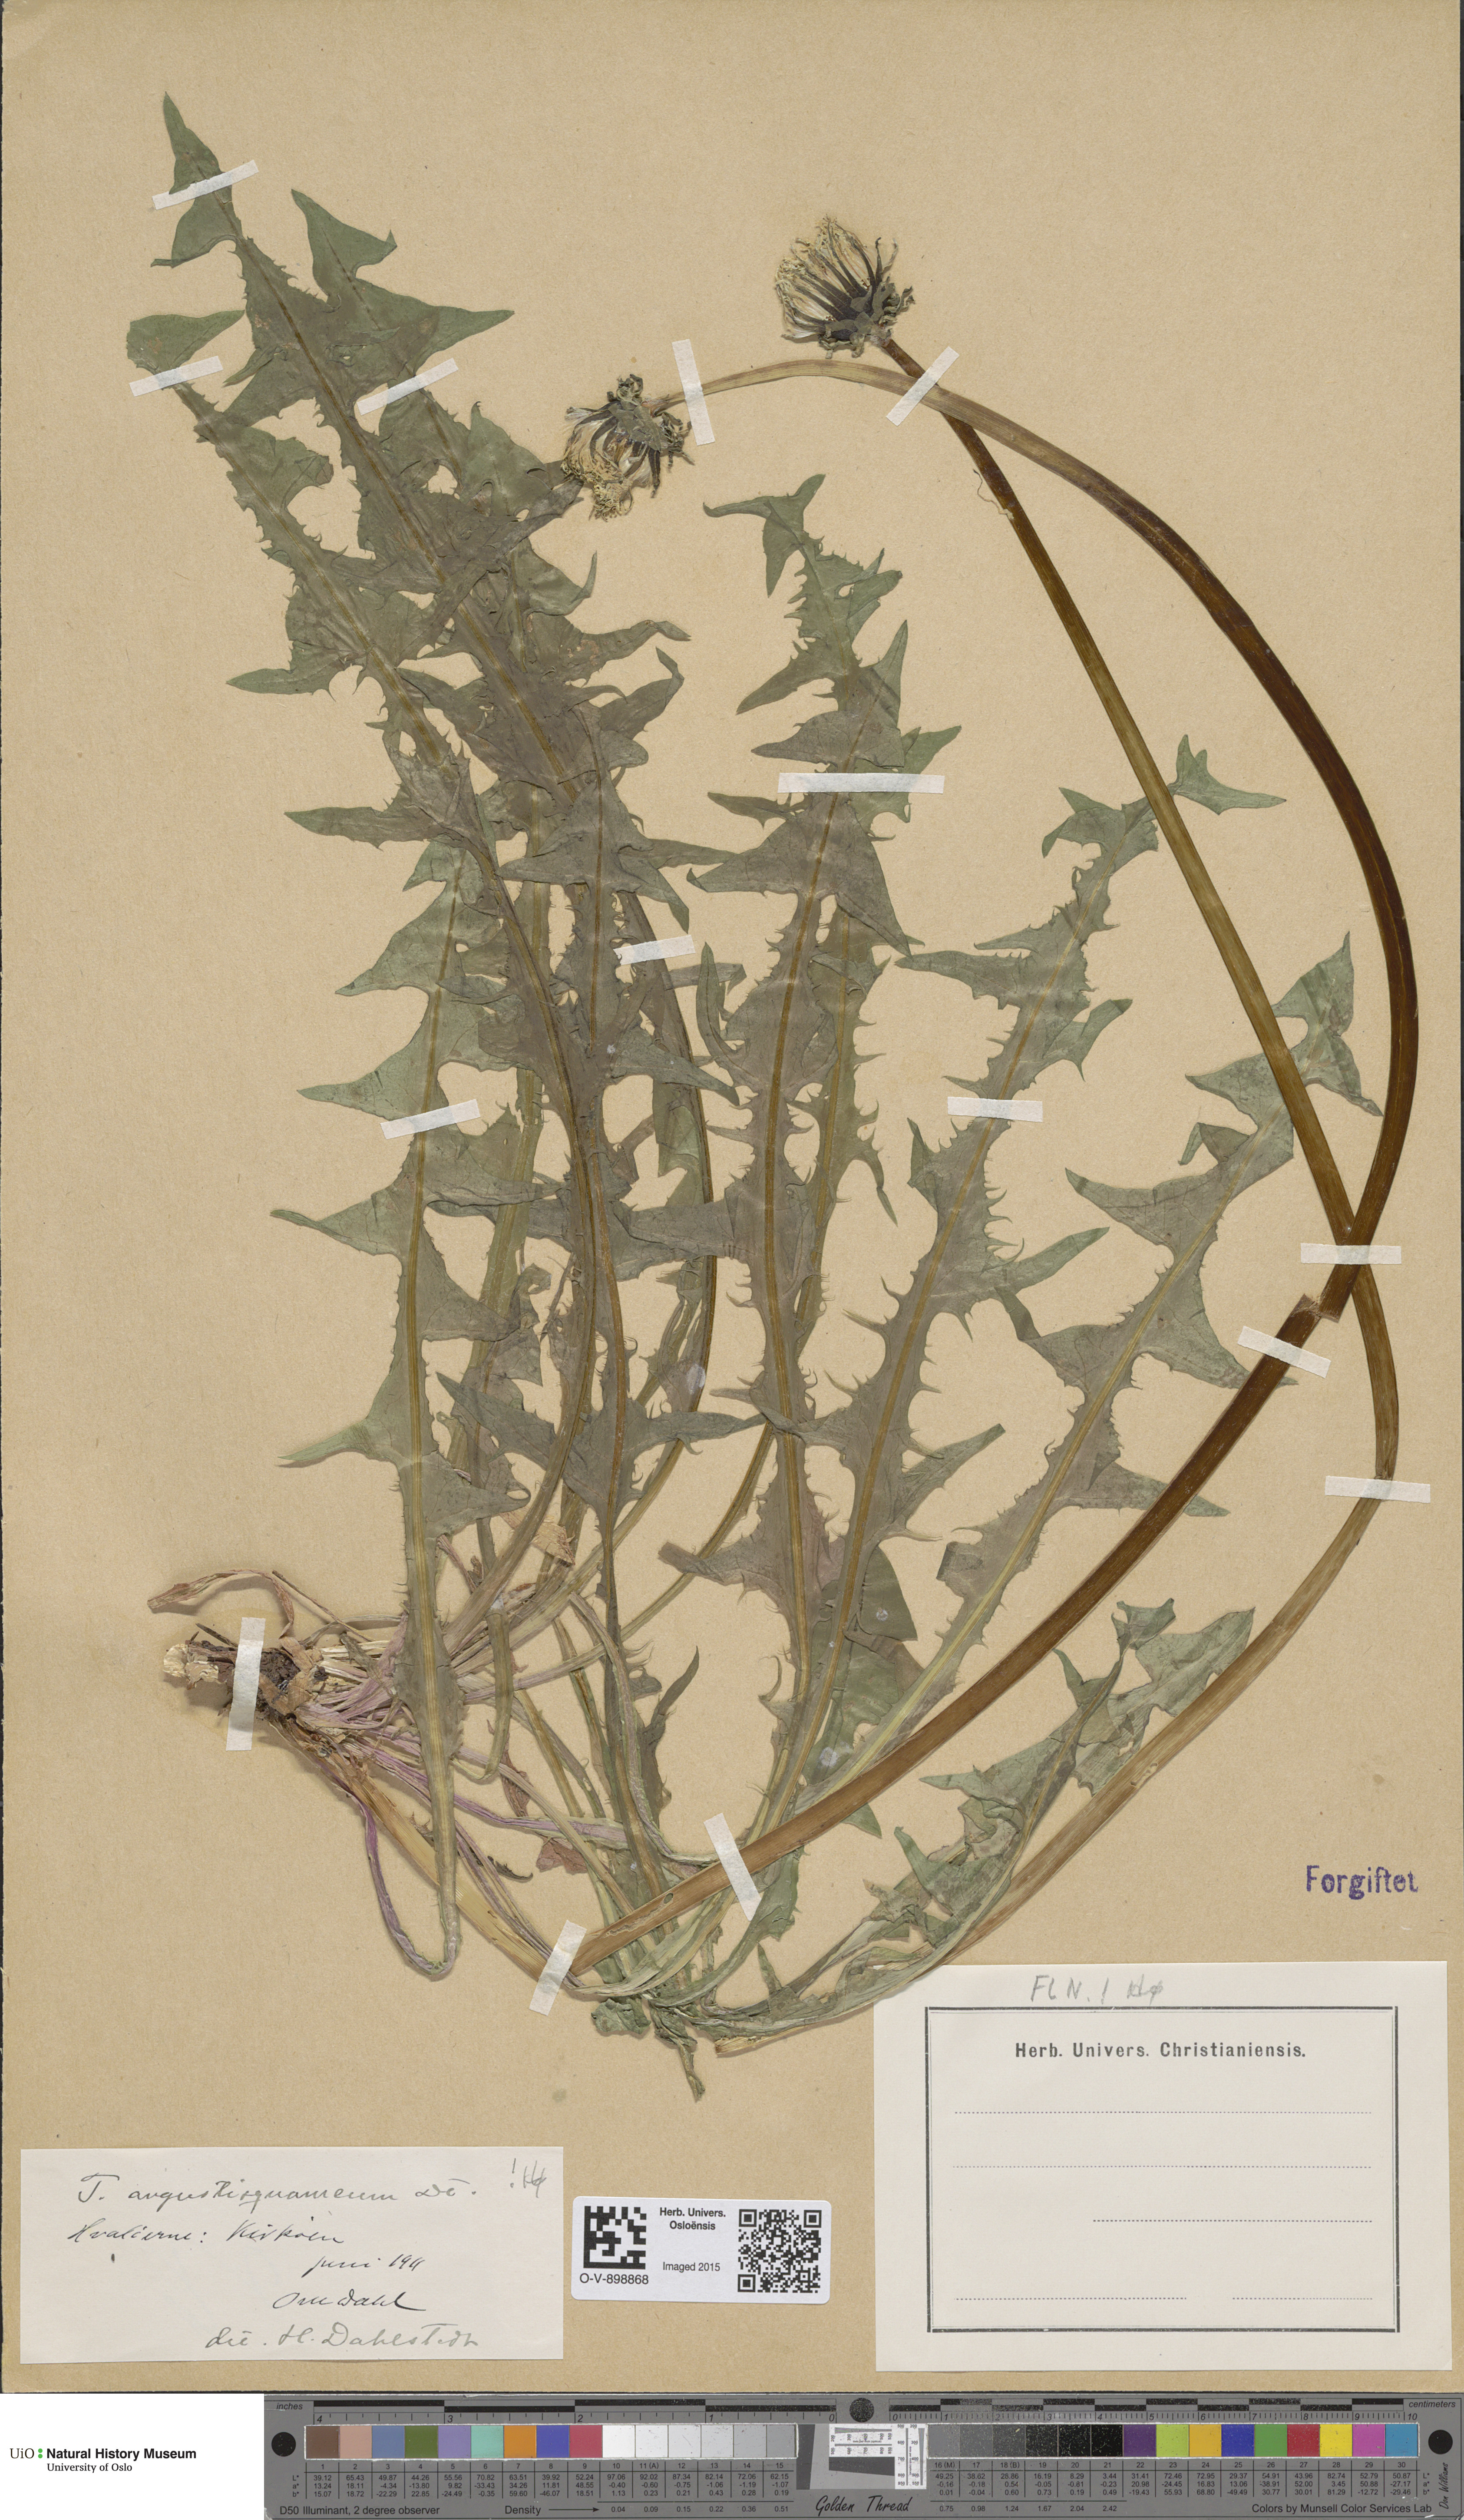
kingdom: Plantae
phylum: Tracheophyta
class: Magnoliopsida
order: Asterales
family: Asteraceae
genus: Taraxacum
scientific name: Taraxacum angustisquameum
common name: Multilobed dandelion
